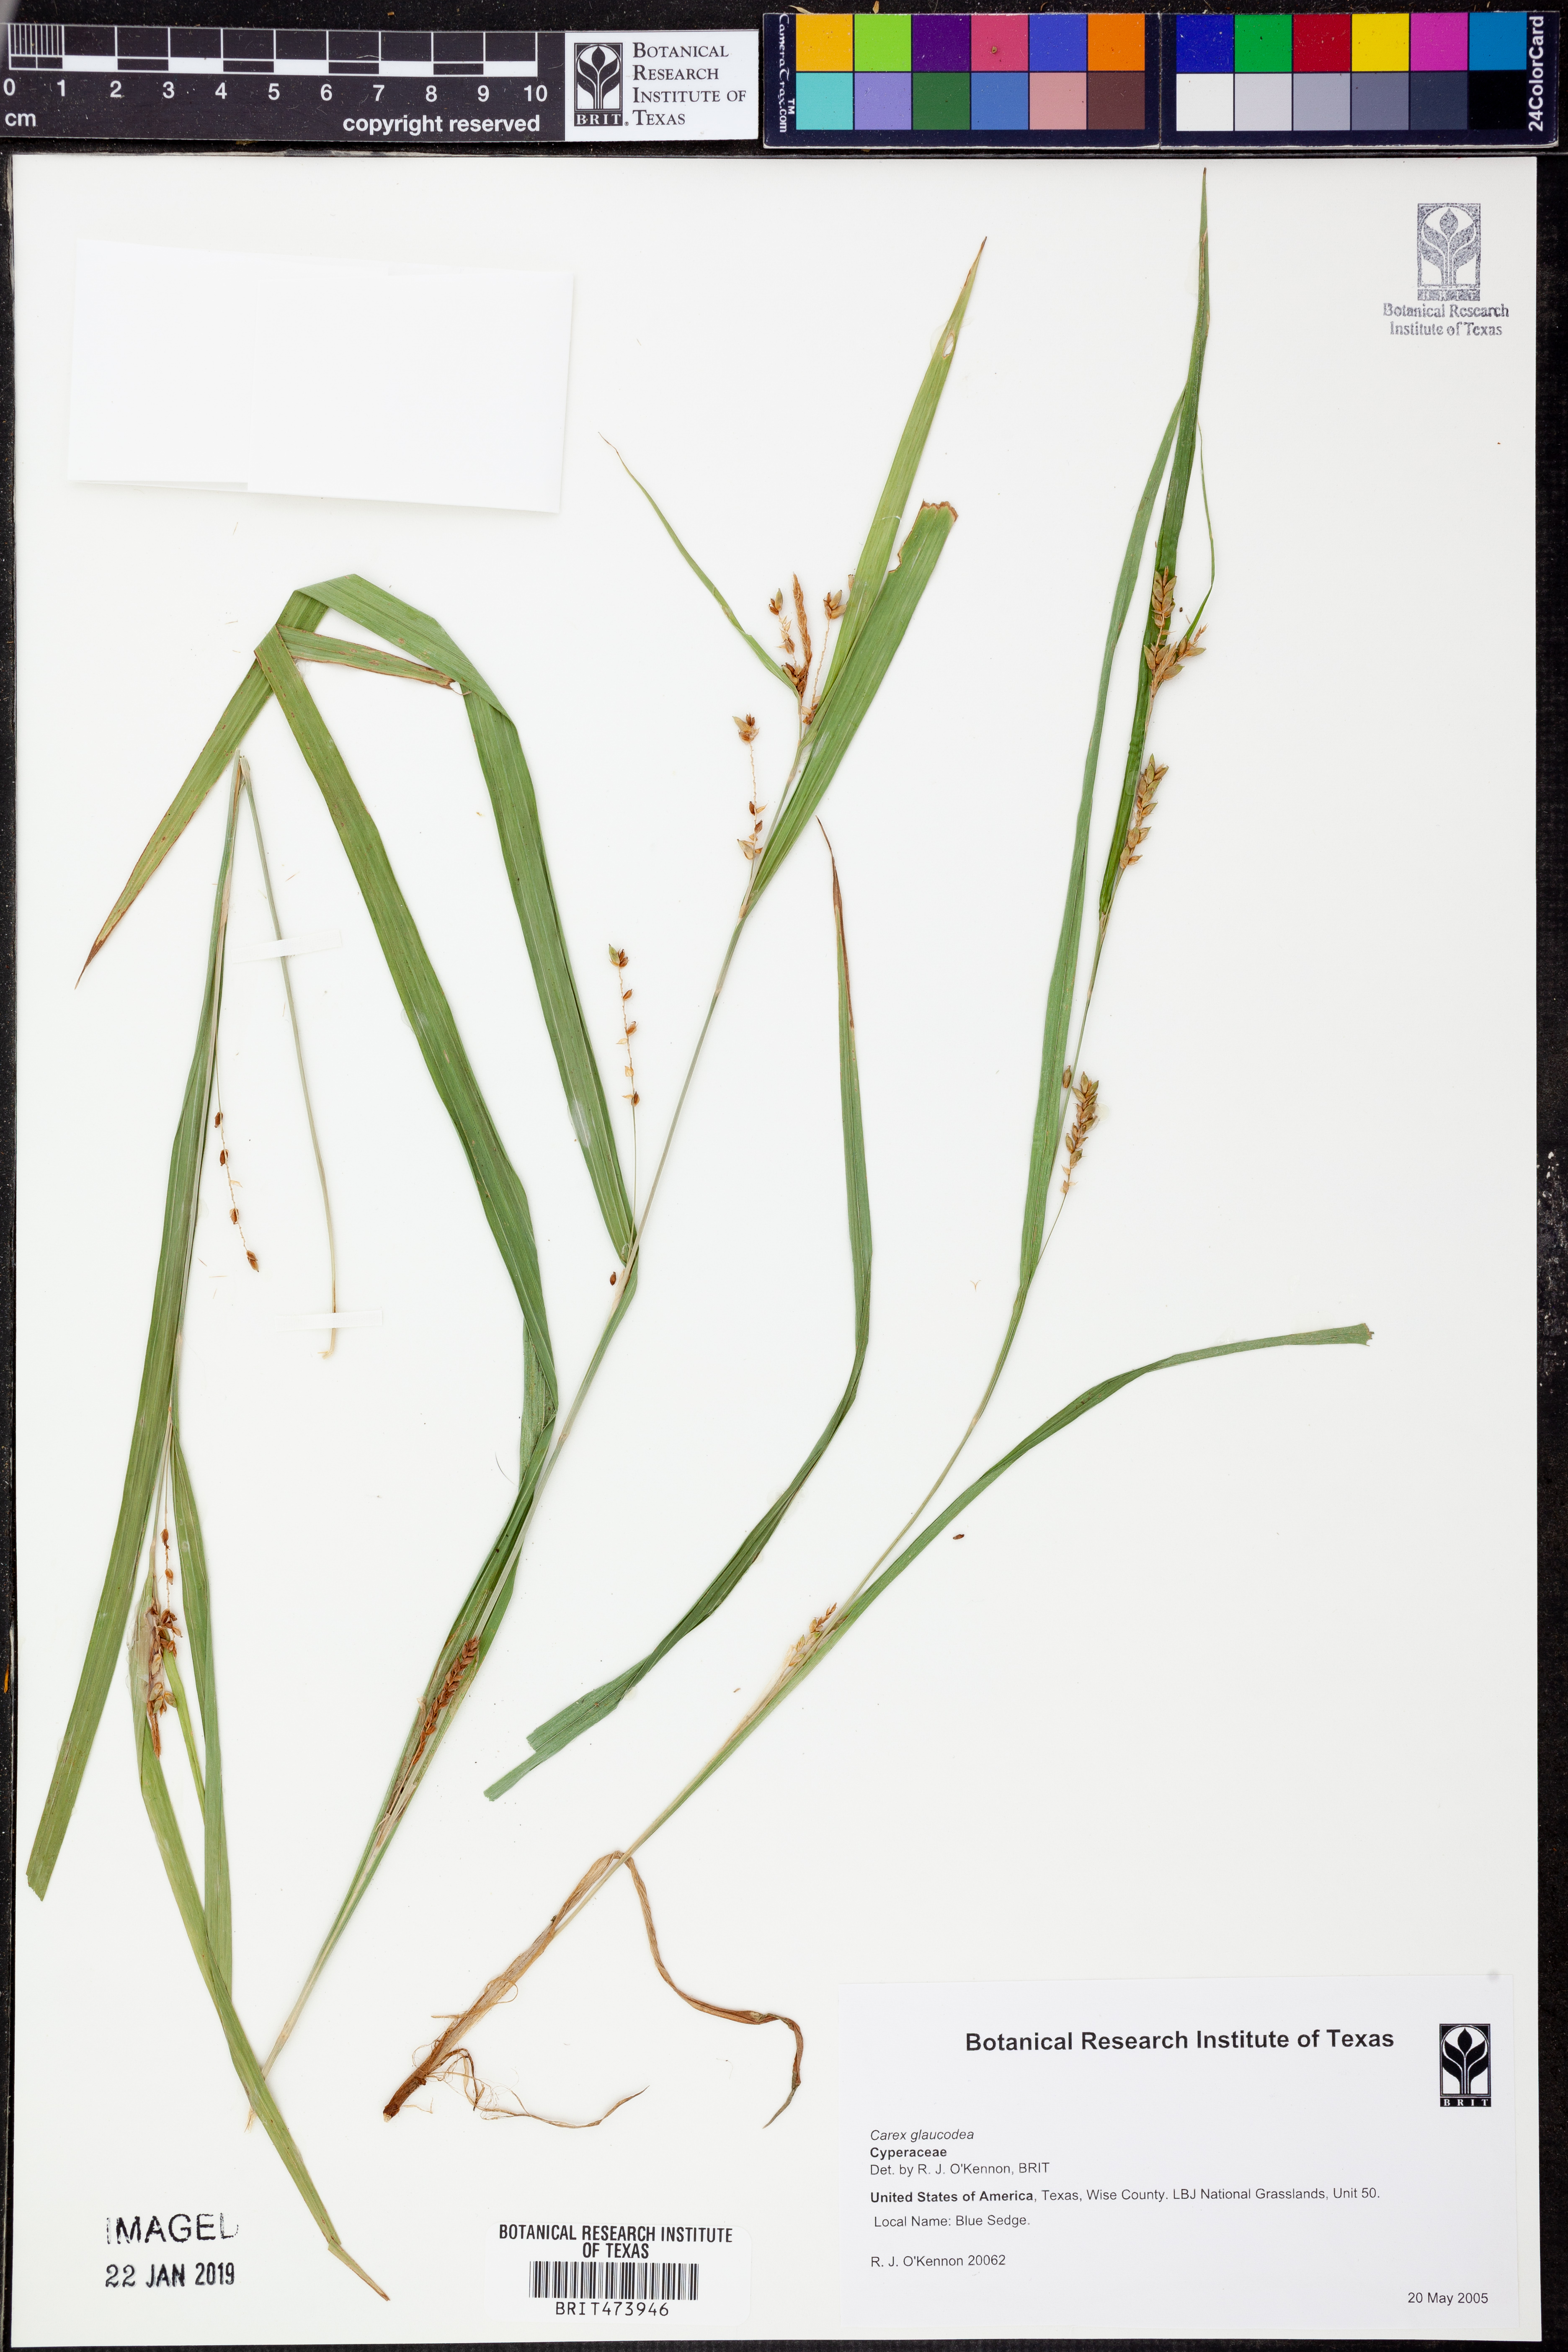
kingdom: Plantae
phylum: Tracheophyta
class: Liliopsida
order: Poales
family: Cyperaceae
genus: Carex
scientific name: Carex glaucodea
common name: Blue sedge
